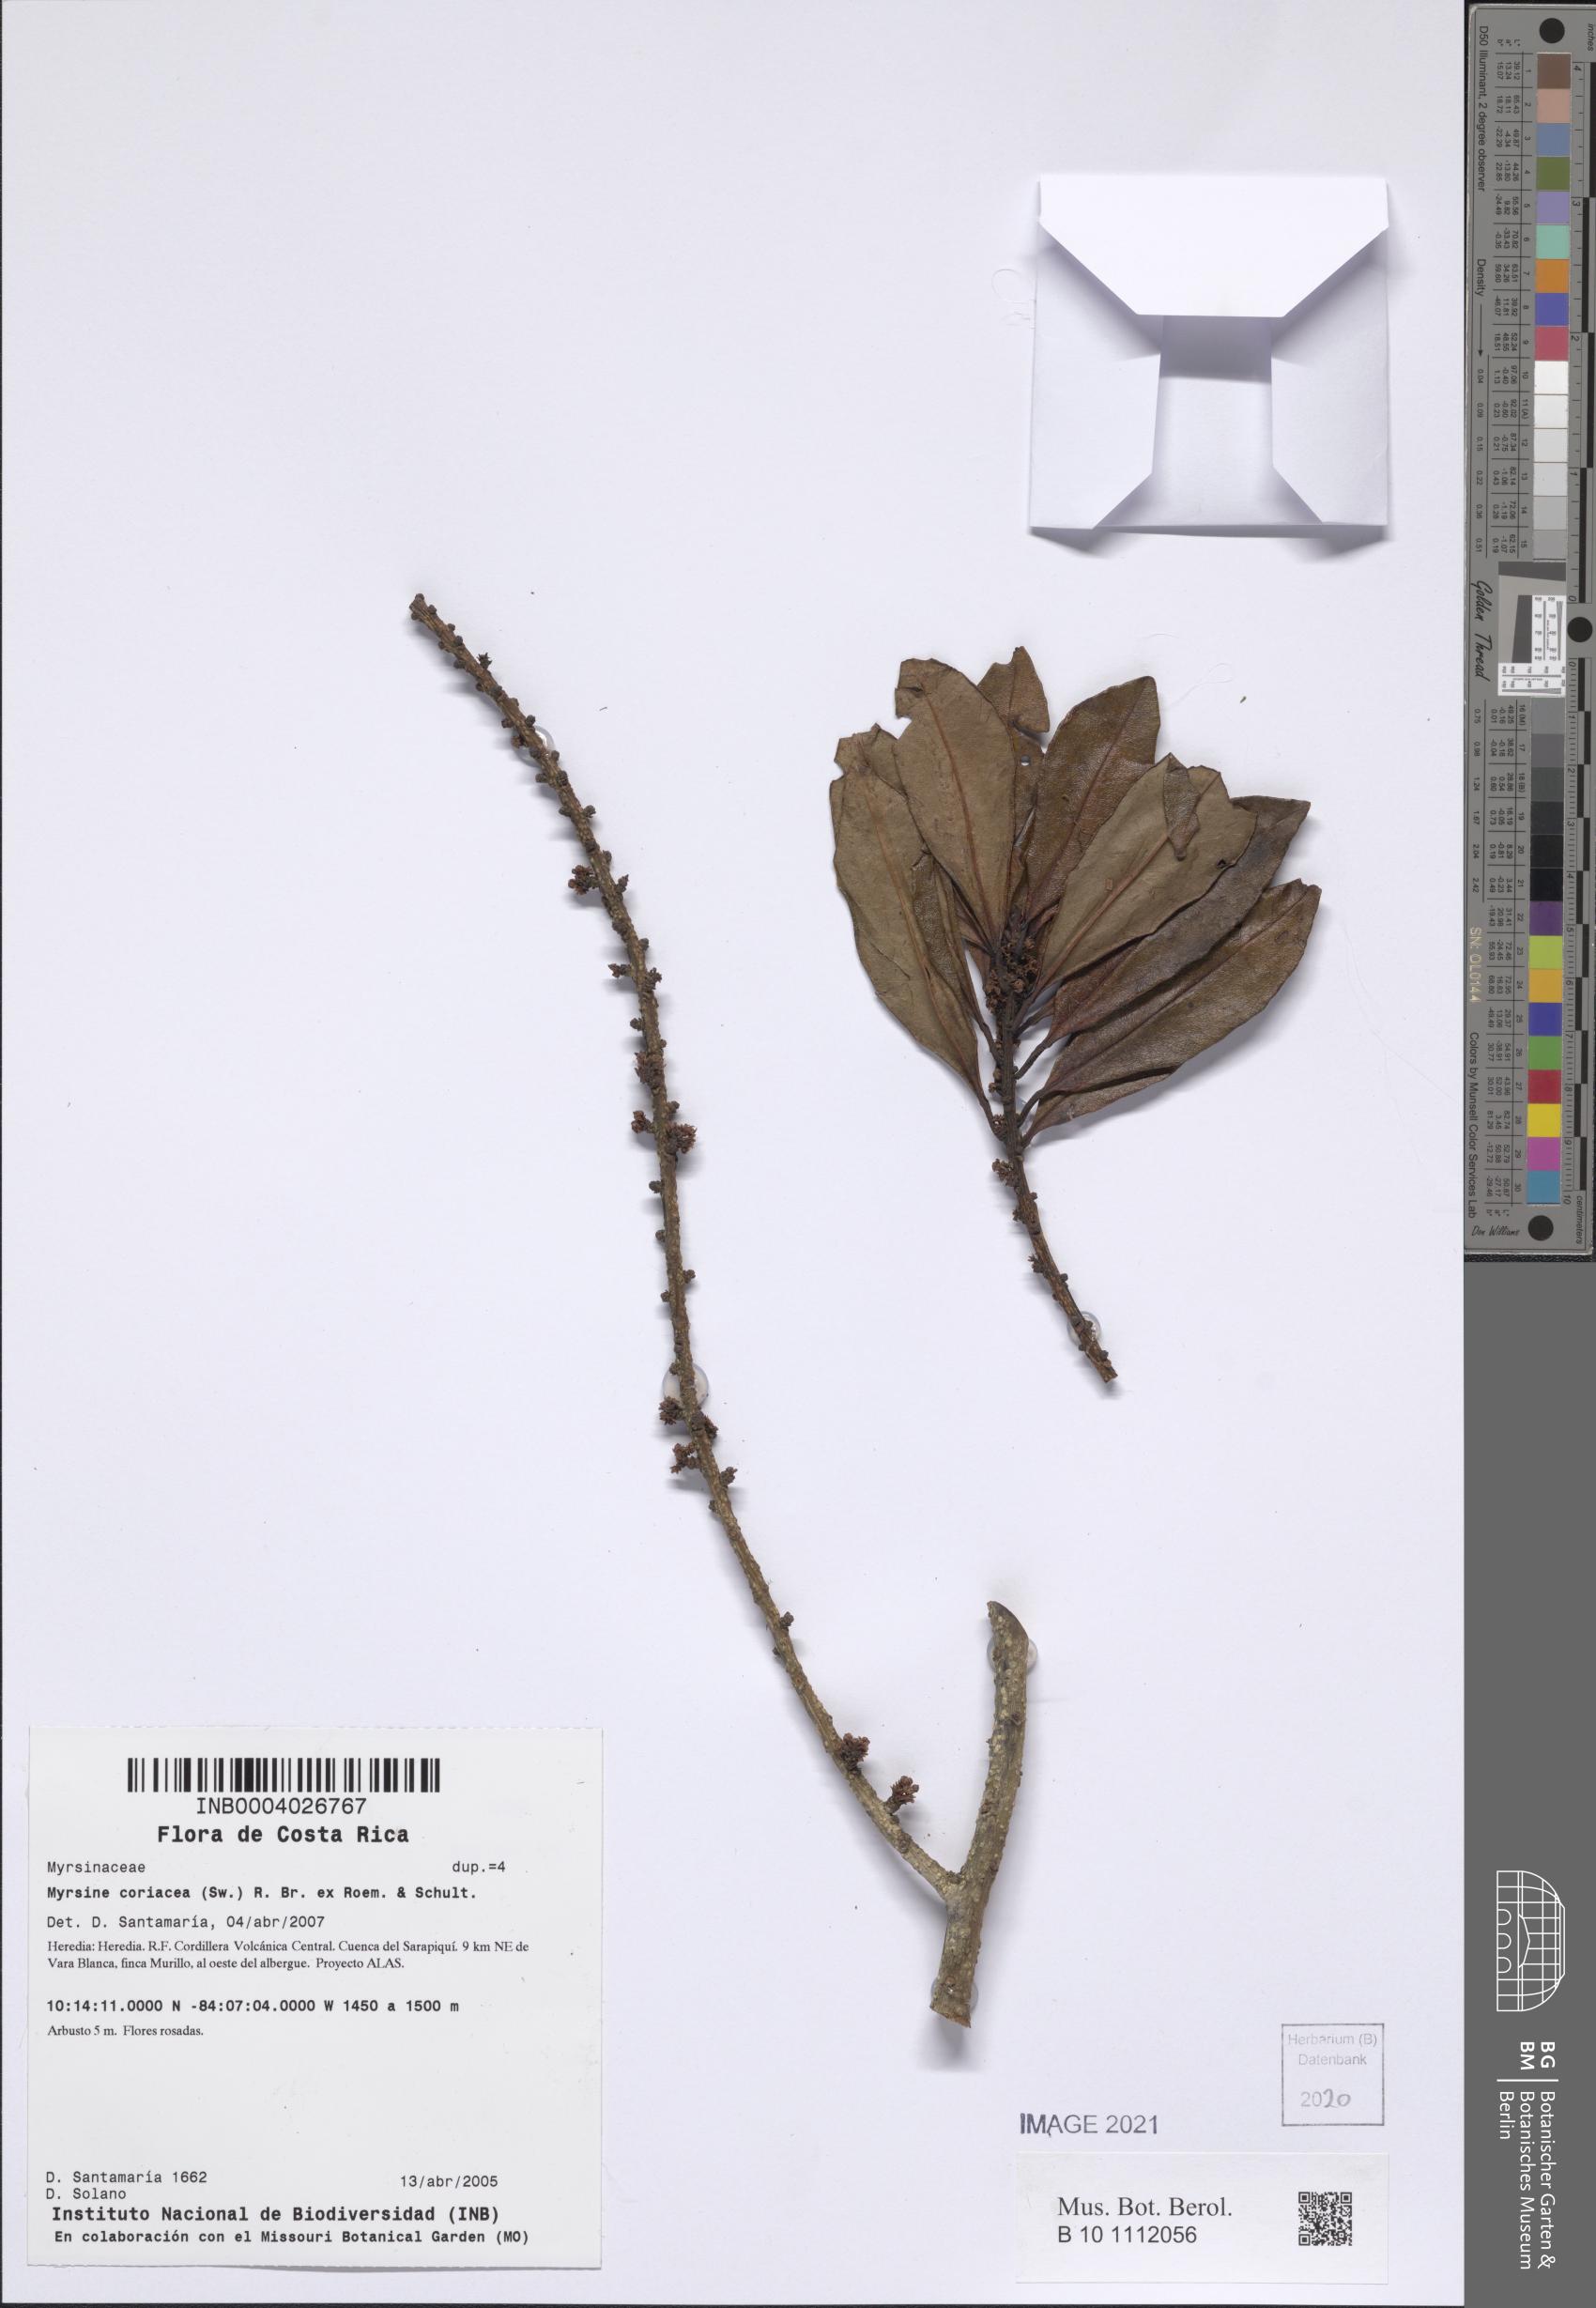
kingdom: Plantae
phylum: Tracheophyta
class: Magnoliopsida
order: Ericales
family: Primulaceae
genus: Myrsine
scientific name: Myrsine coriacea
